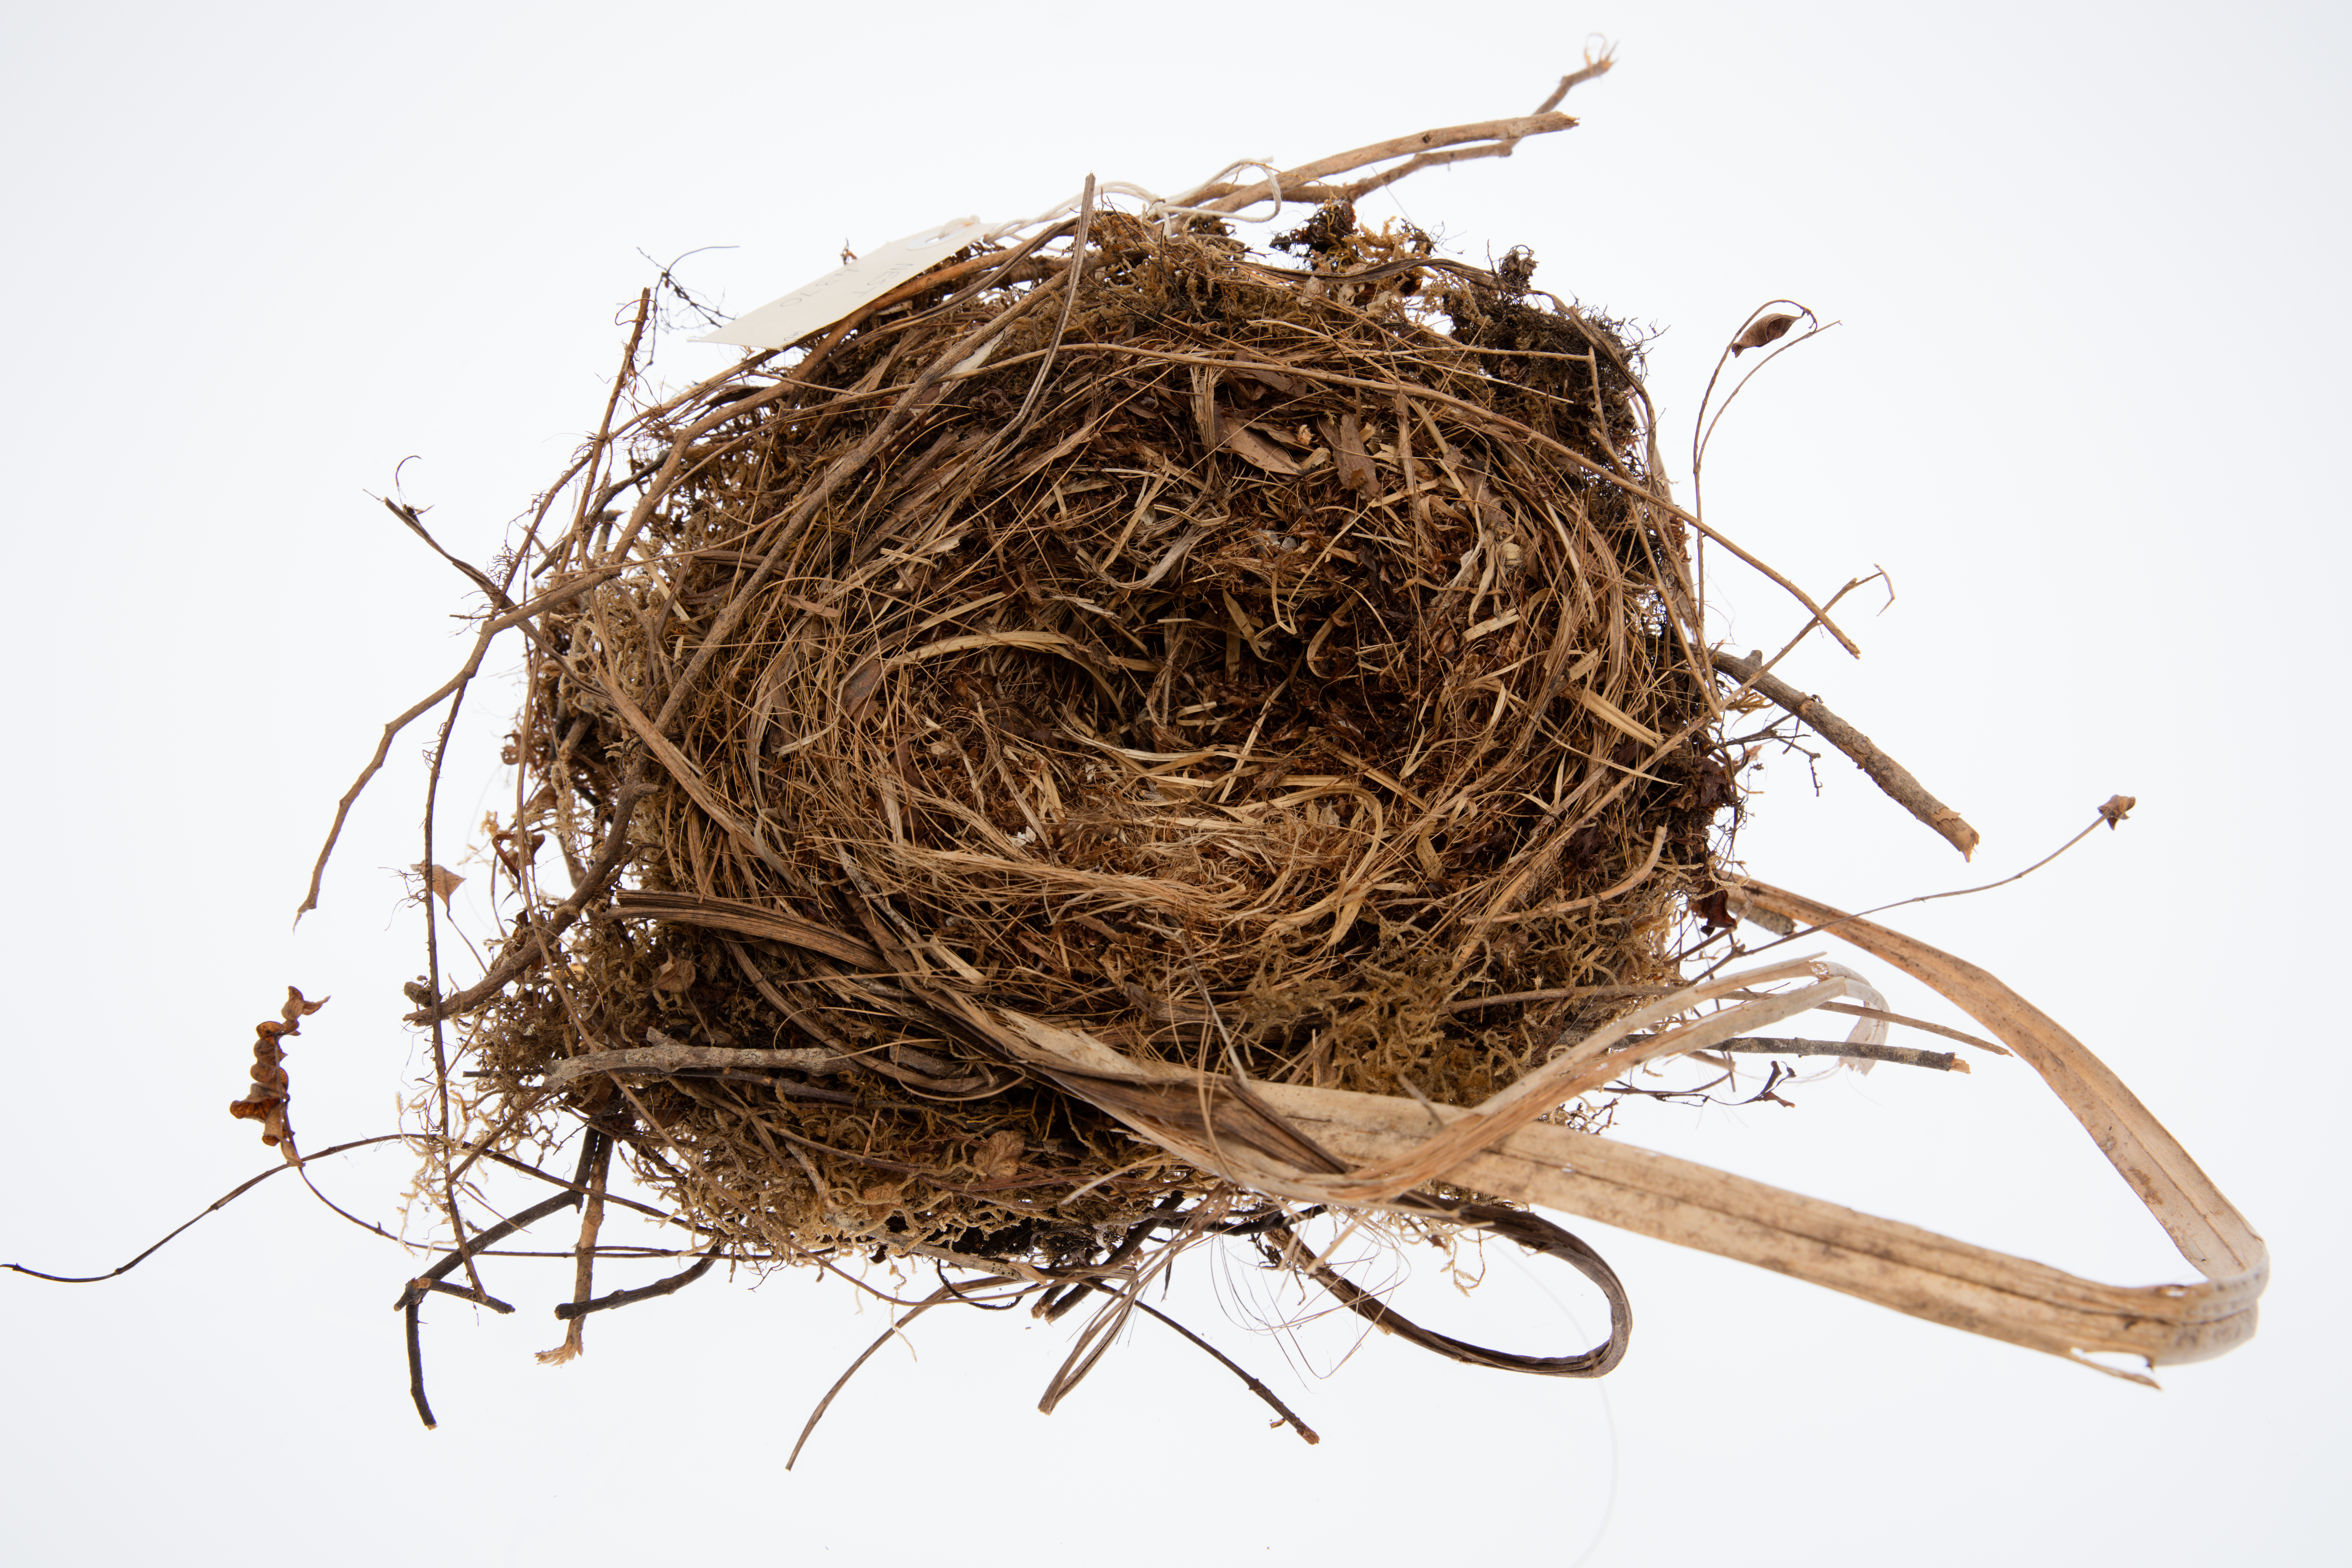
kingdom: Animalia
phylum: Chordata
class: Aves
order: Passeriformes
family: Callaeatidae
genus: Callaeas
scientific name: Callaeas cinereus
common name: South island kokako
